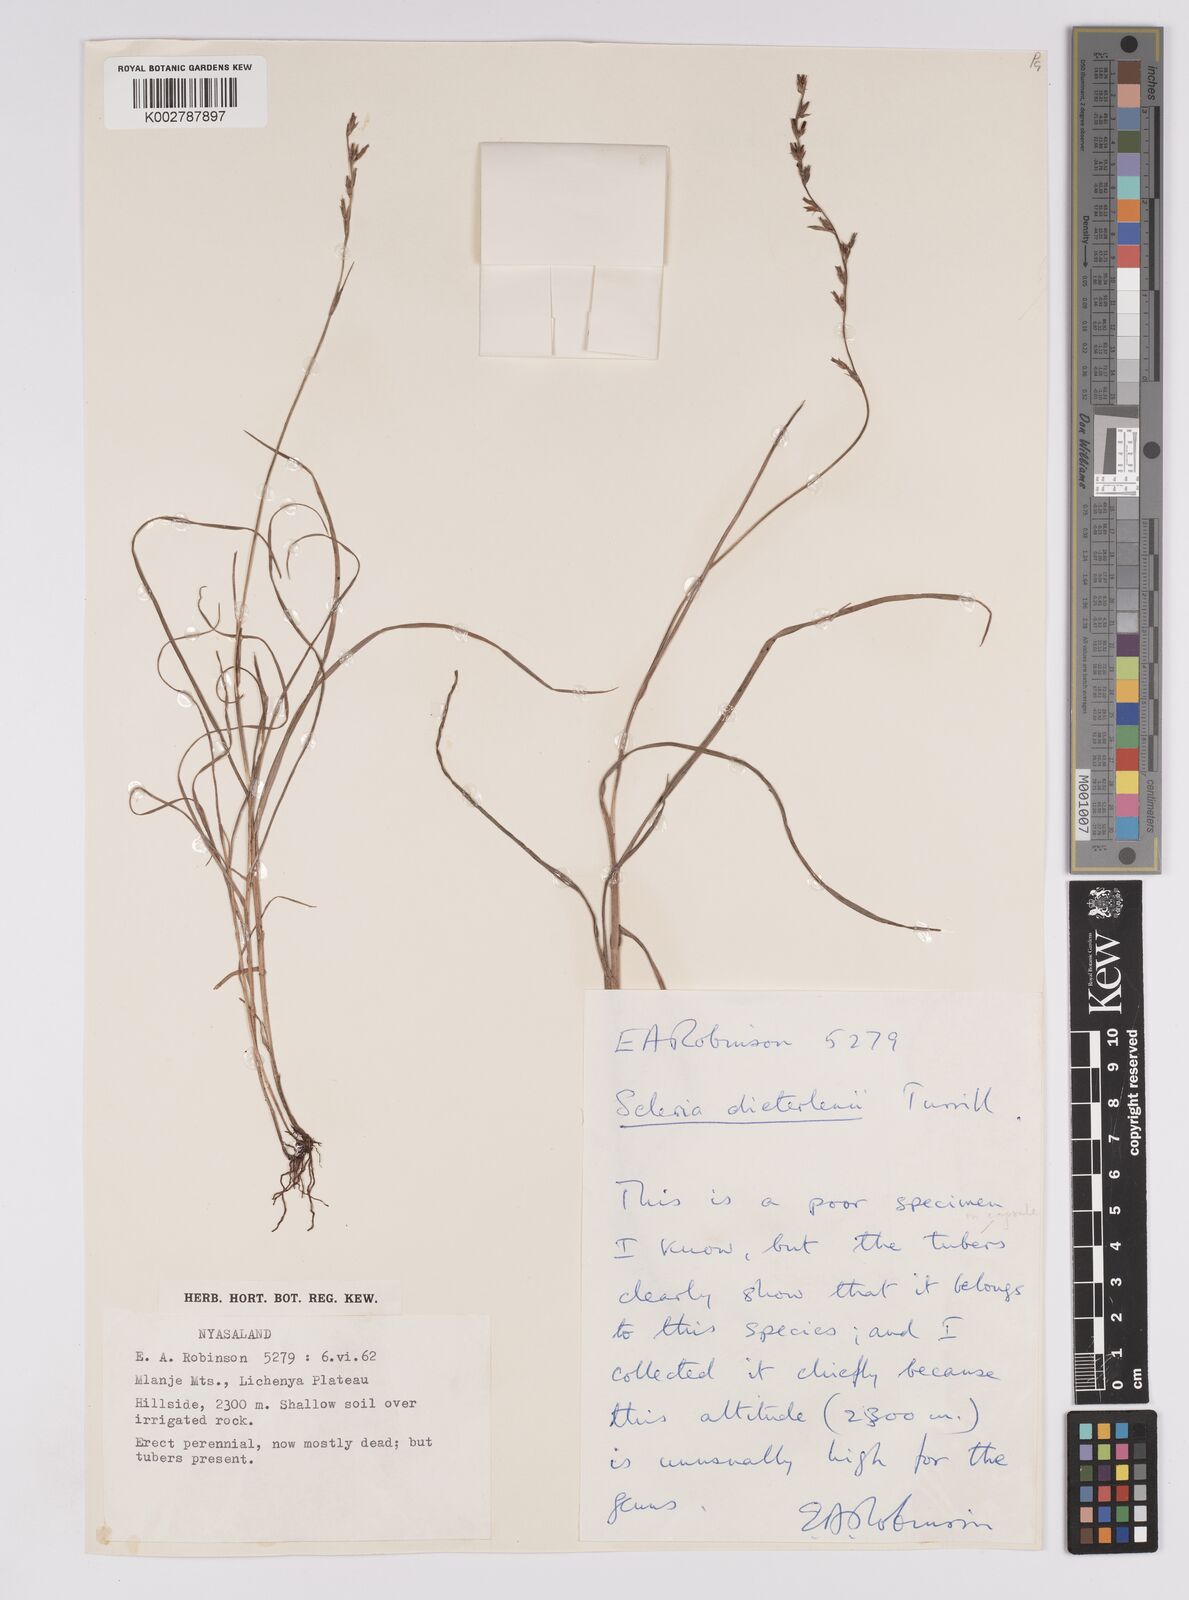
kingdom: Plantae
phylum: Tracheophyta
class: Liliopsida
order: Poales
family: Cyperaceae
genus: Scleria
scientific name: Scleria flexuosa
